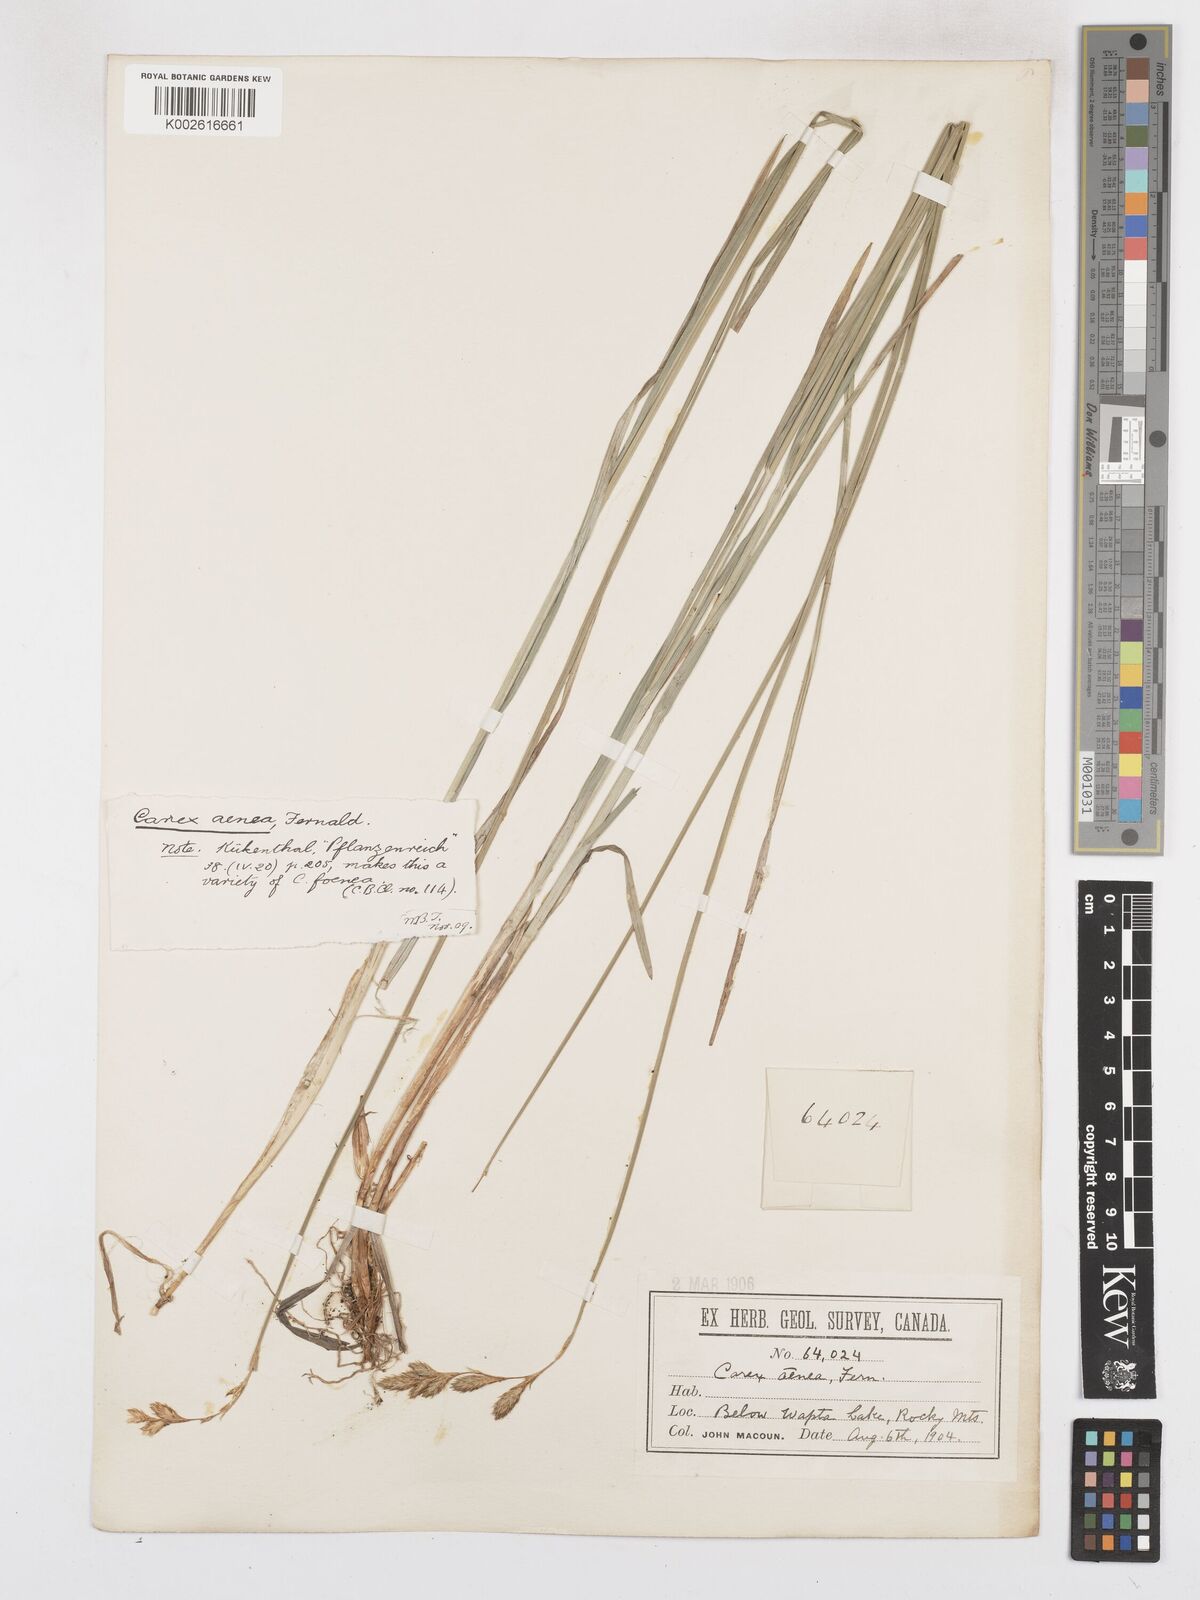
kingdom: Plantae
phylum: Tracheophyta
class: Liliopsida
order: Poales
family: Cyperaceae
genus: Carex
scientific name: Carex foenea
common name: Bronze sedge
